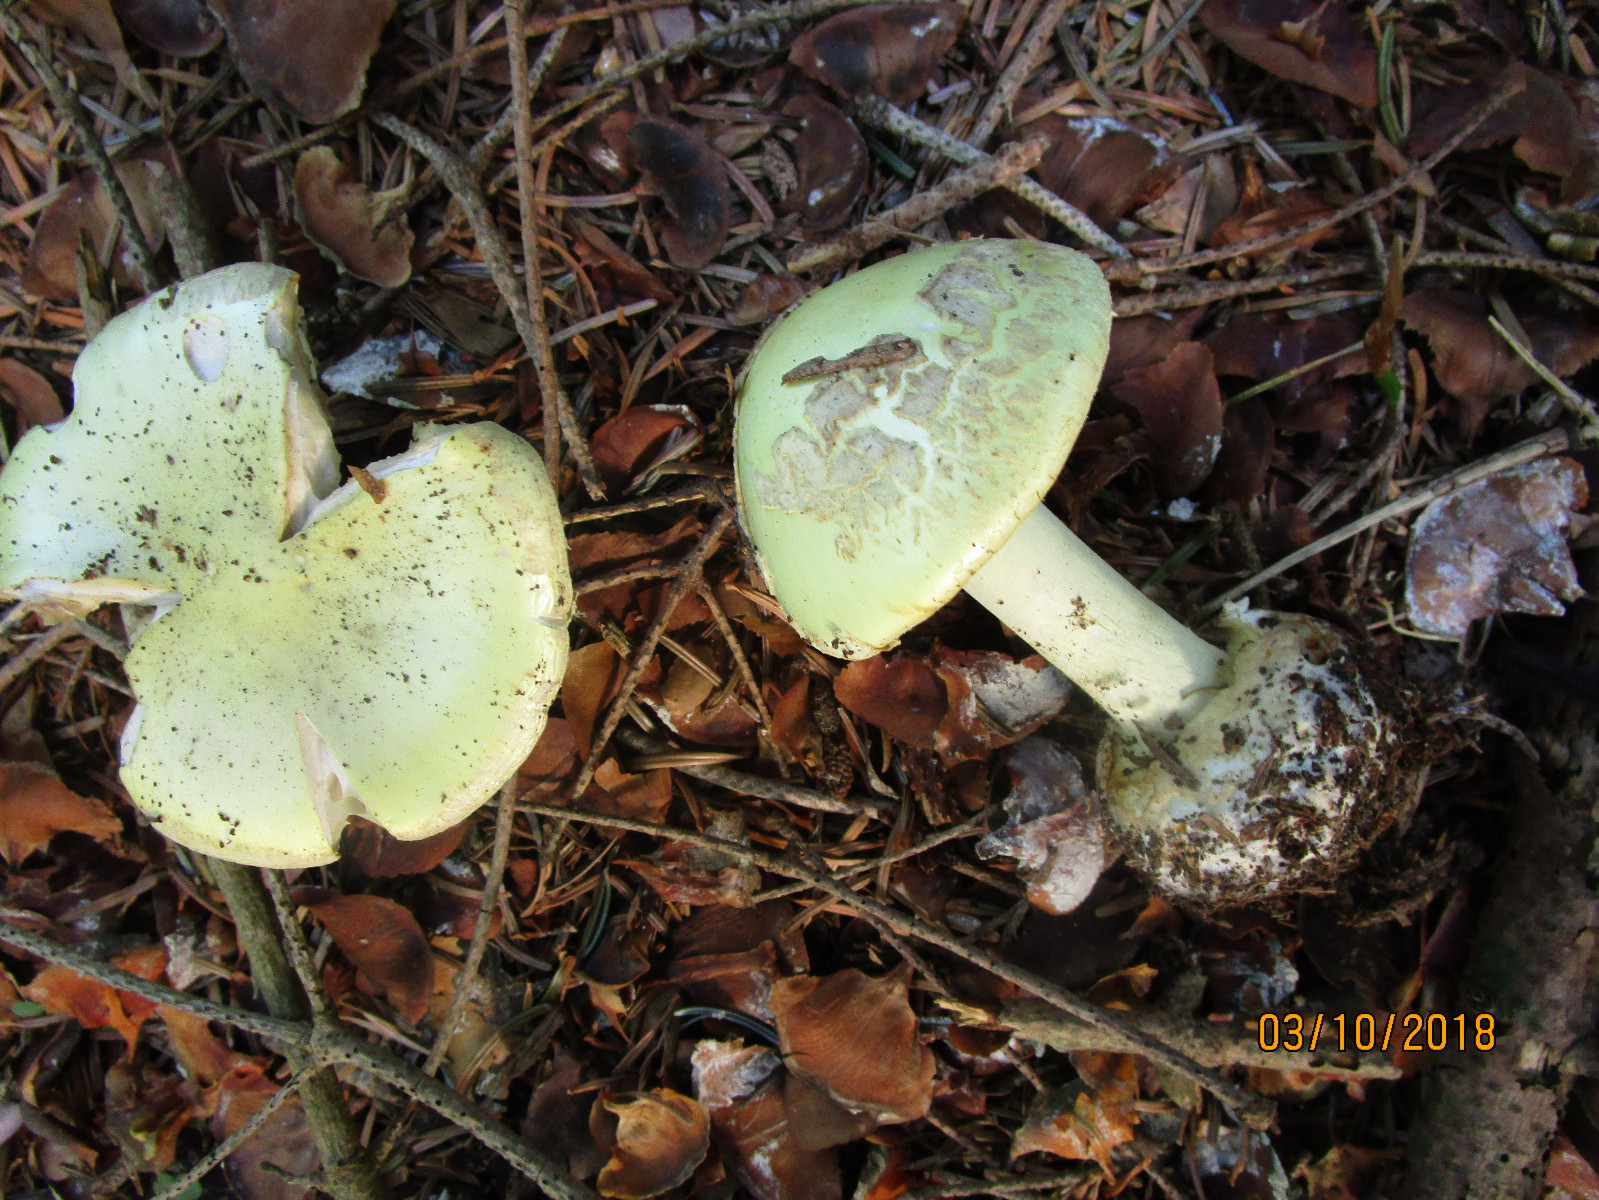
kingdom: Fungi
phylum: Basidiomycota
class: Agaricomycetes
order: Agaricales
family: Amanitaceae
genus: Amanita
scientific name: Amanita citrina
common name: kugleknoldet fluesvamp
